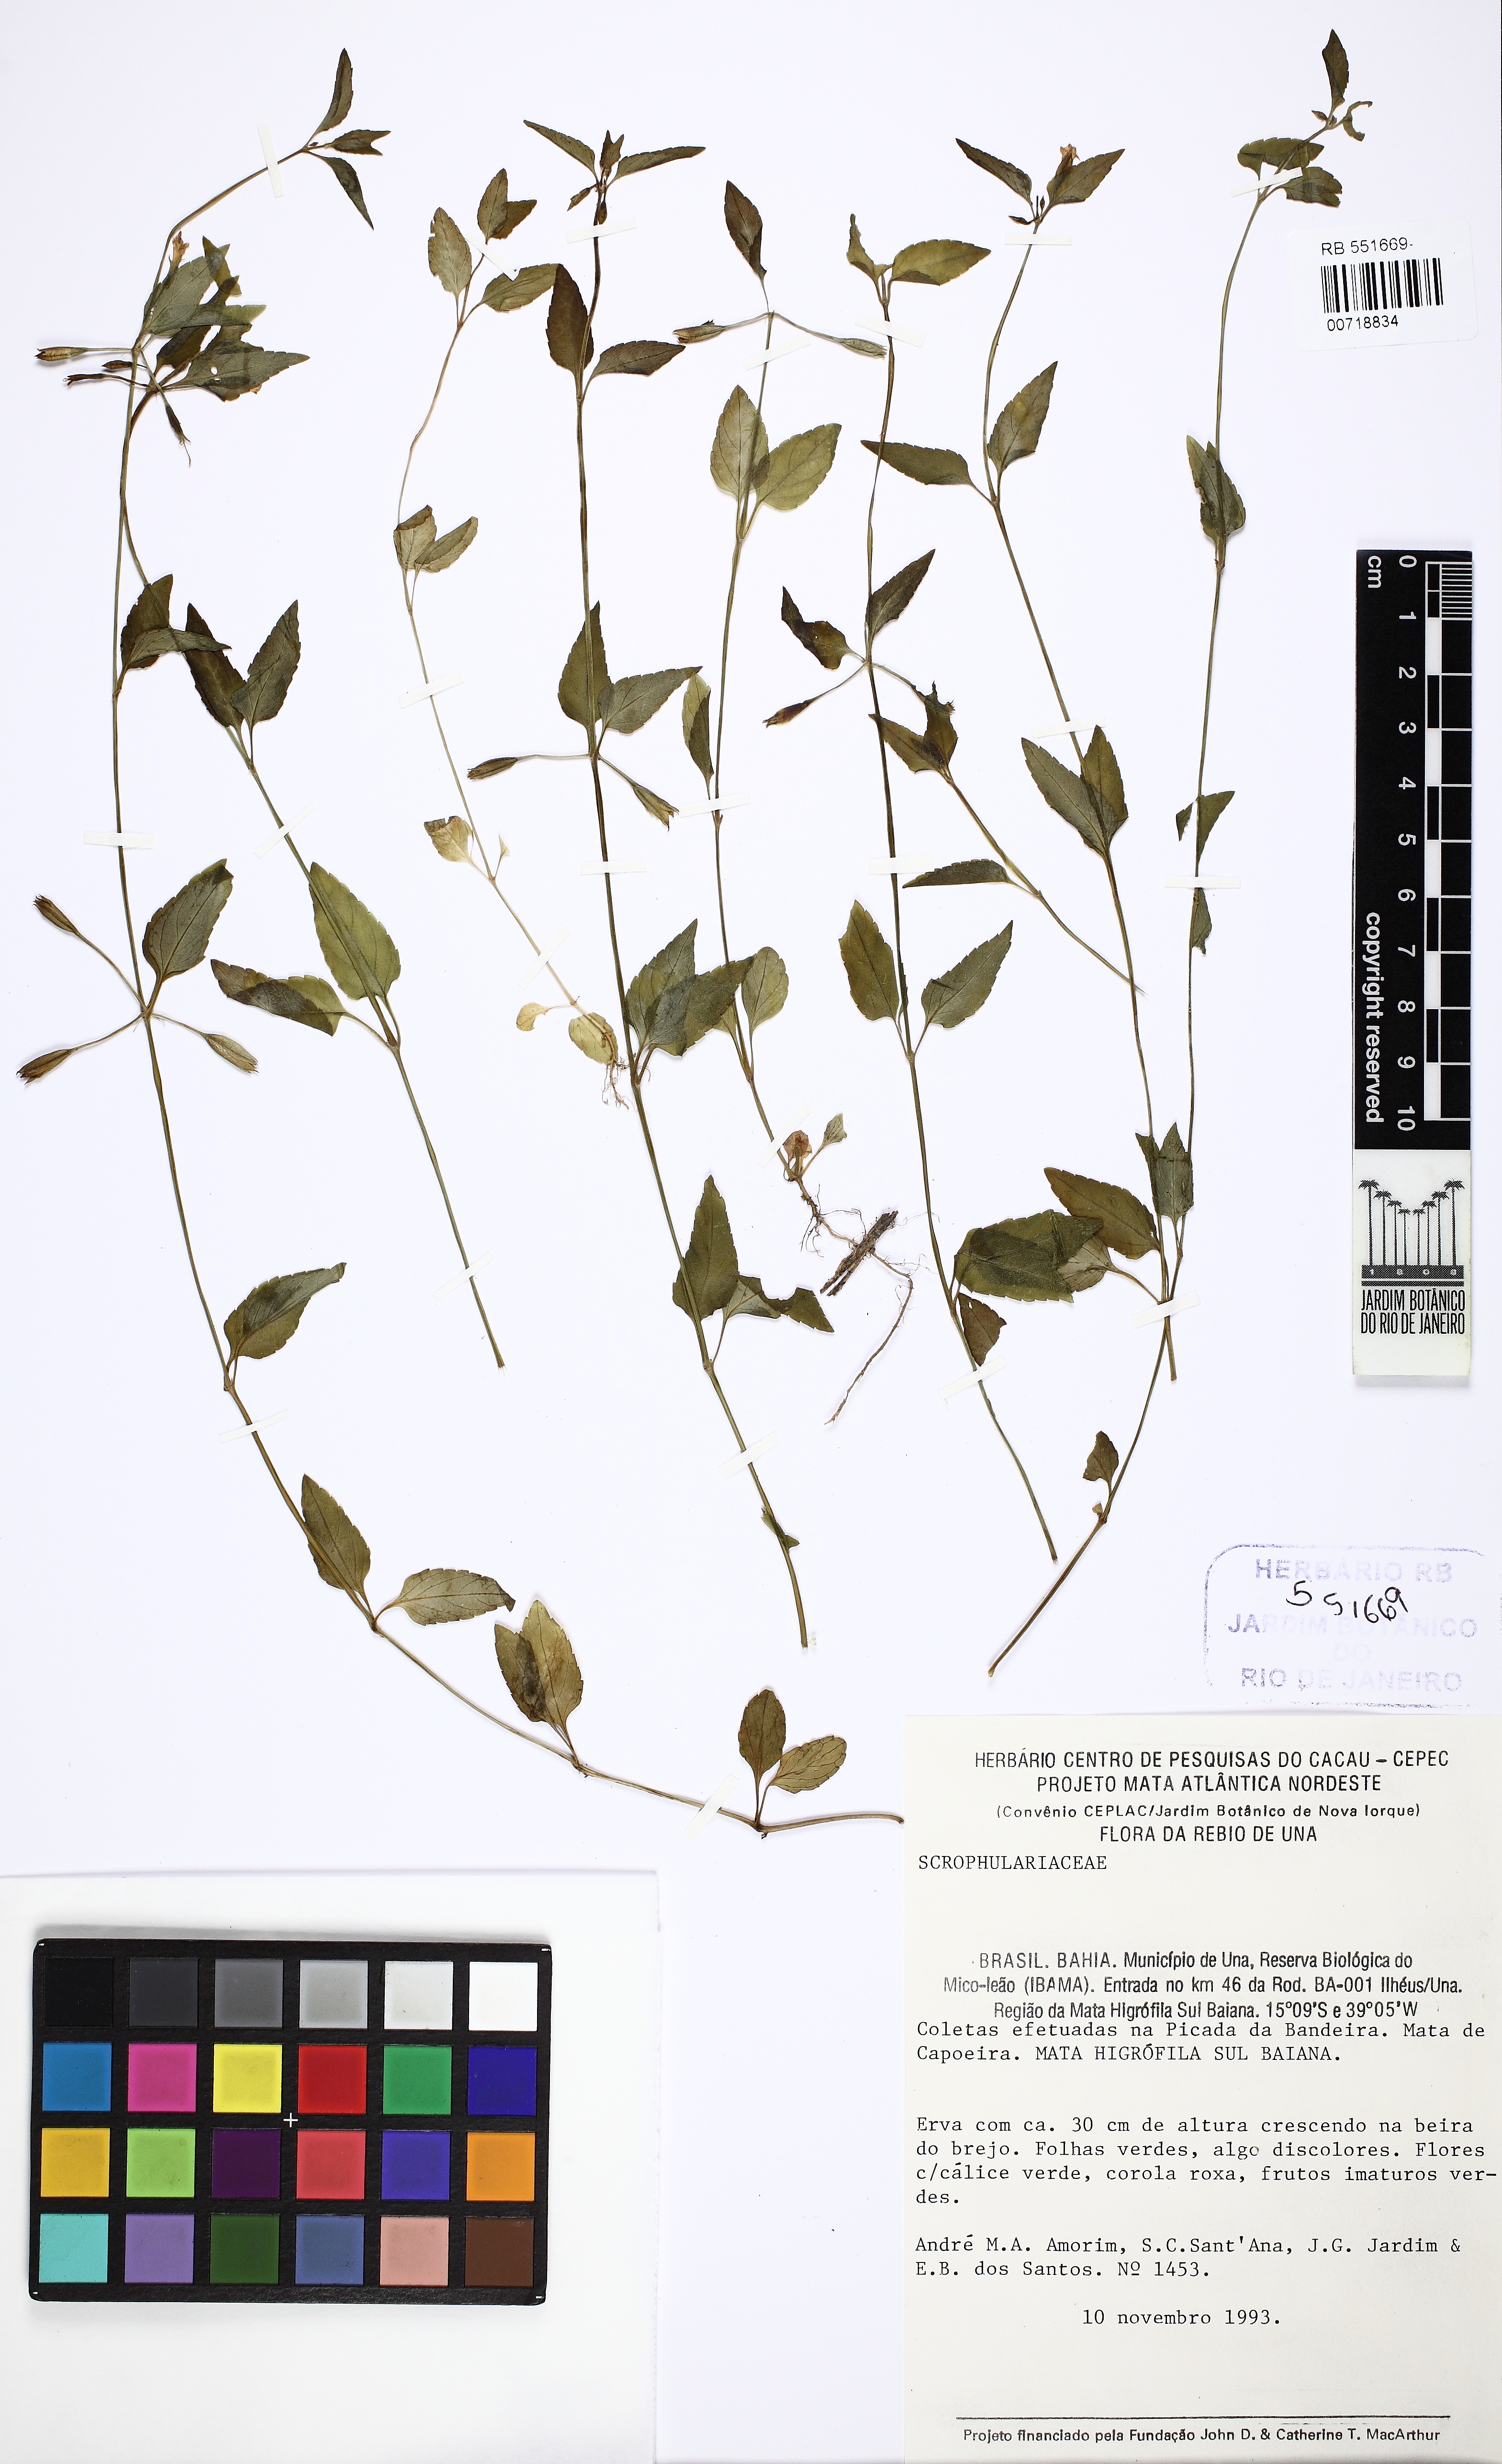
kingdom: Plantae
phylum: Tracheophyta
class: Magnoliopsida
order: Lamiales
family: Linderniaceae
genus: Torenia
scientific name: Torenia thouarsii
